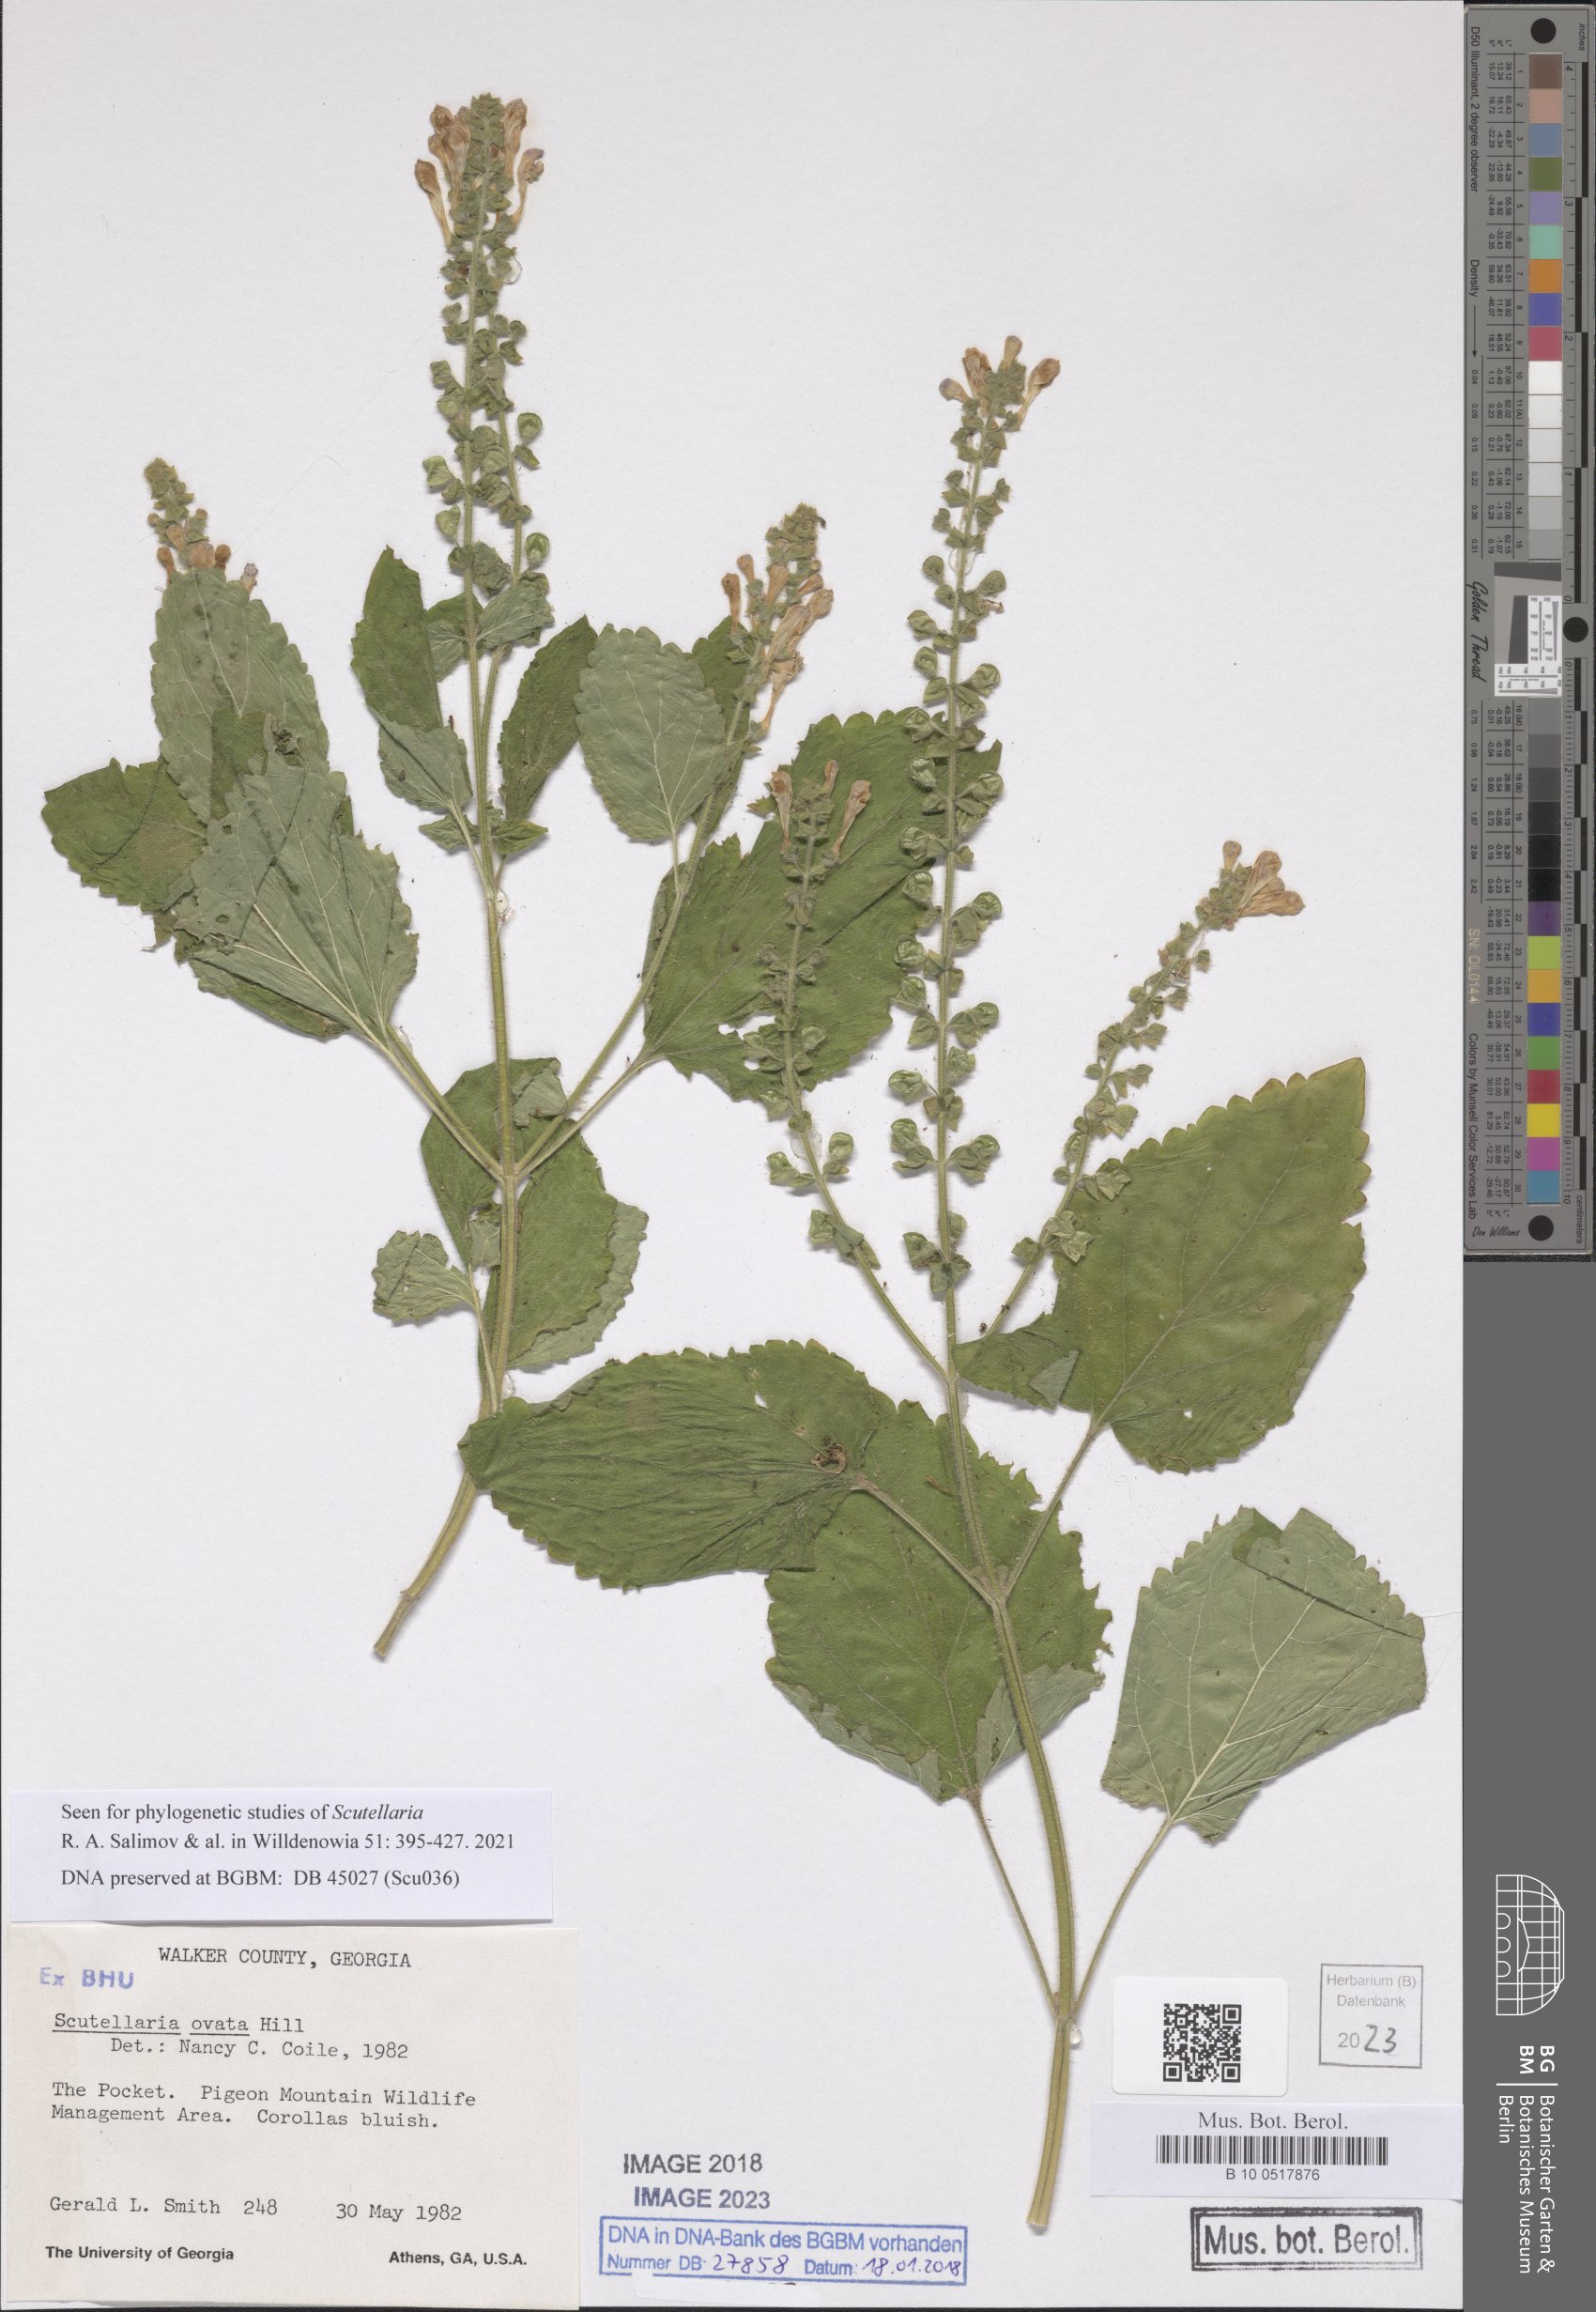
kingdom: Plantae
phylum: Tracheophyta
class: Magnoliopsida
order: Lamiales
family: Lamiaceae
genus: Scutellaria
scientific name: Scutellaria ovata
